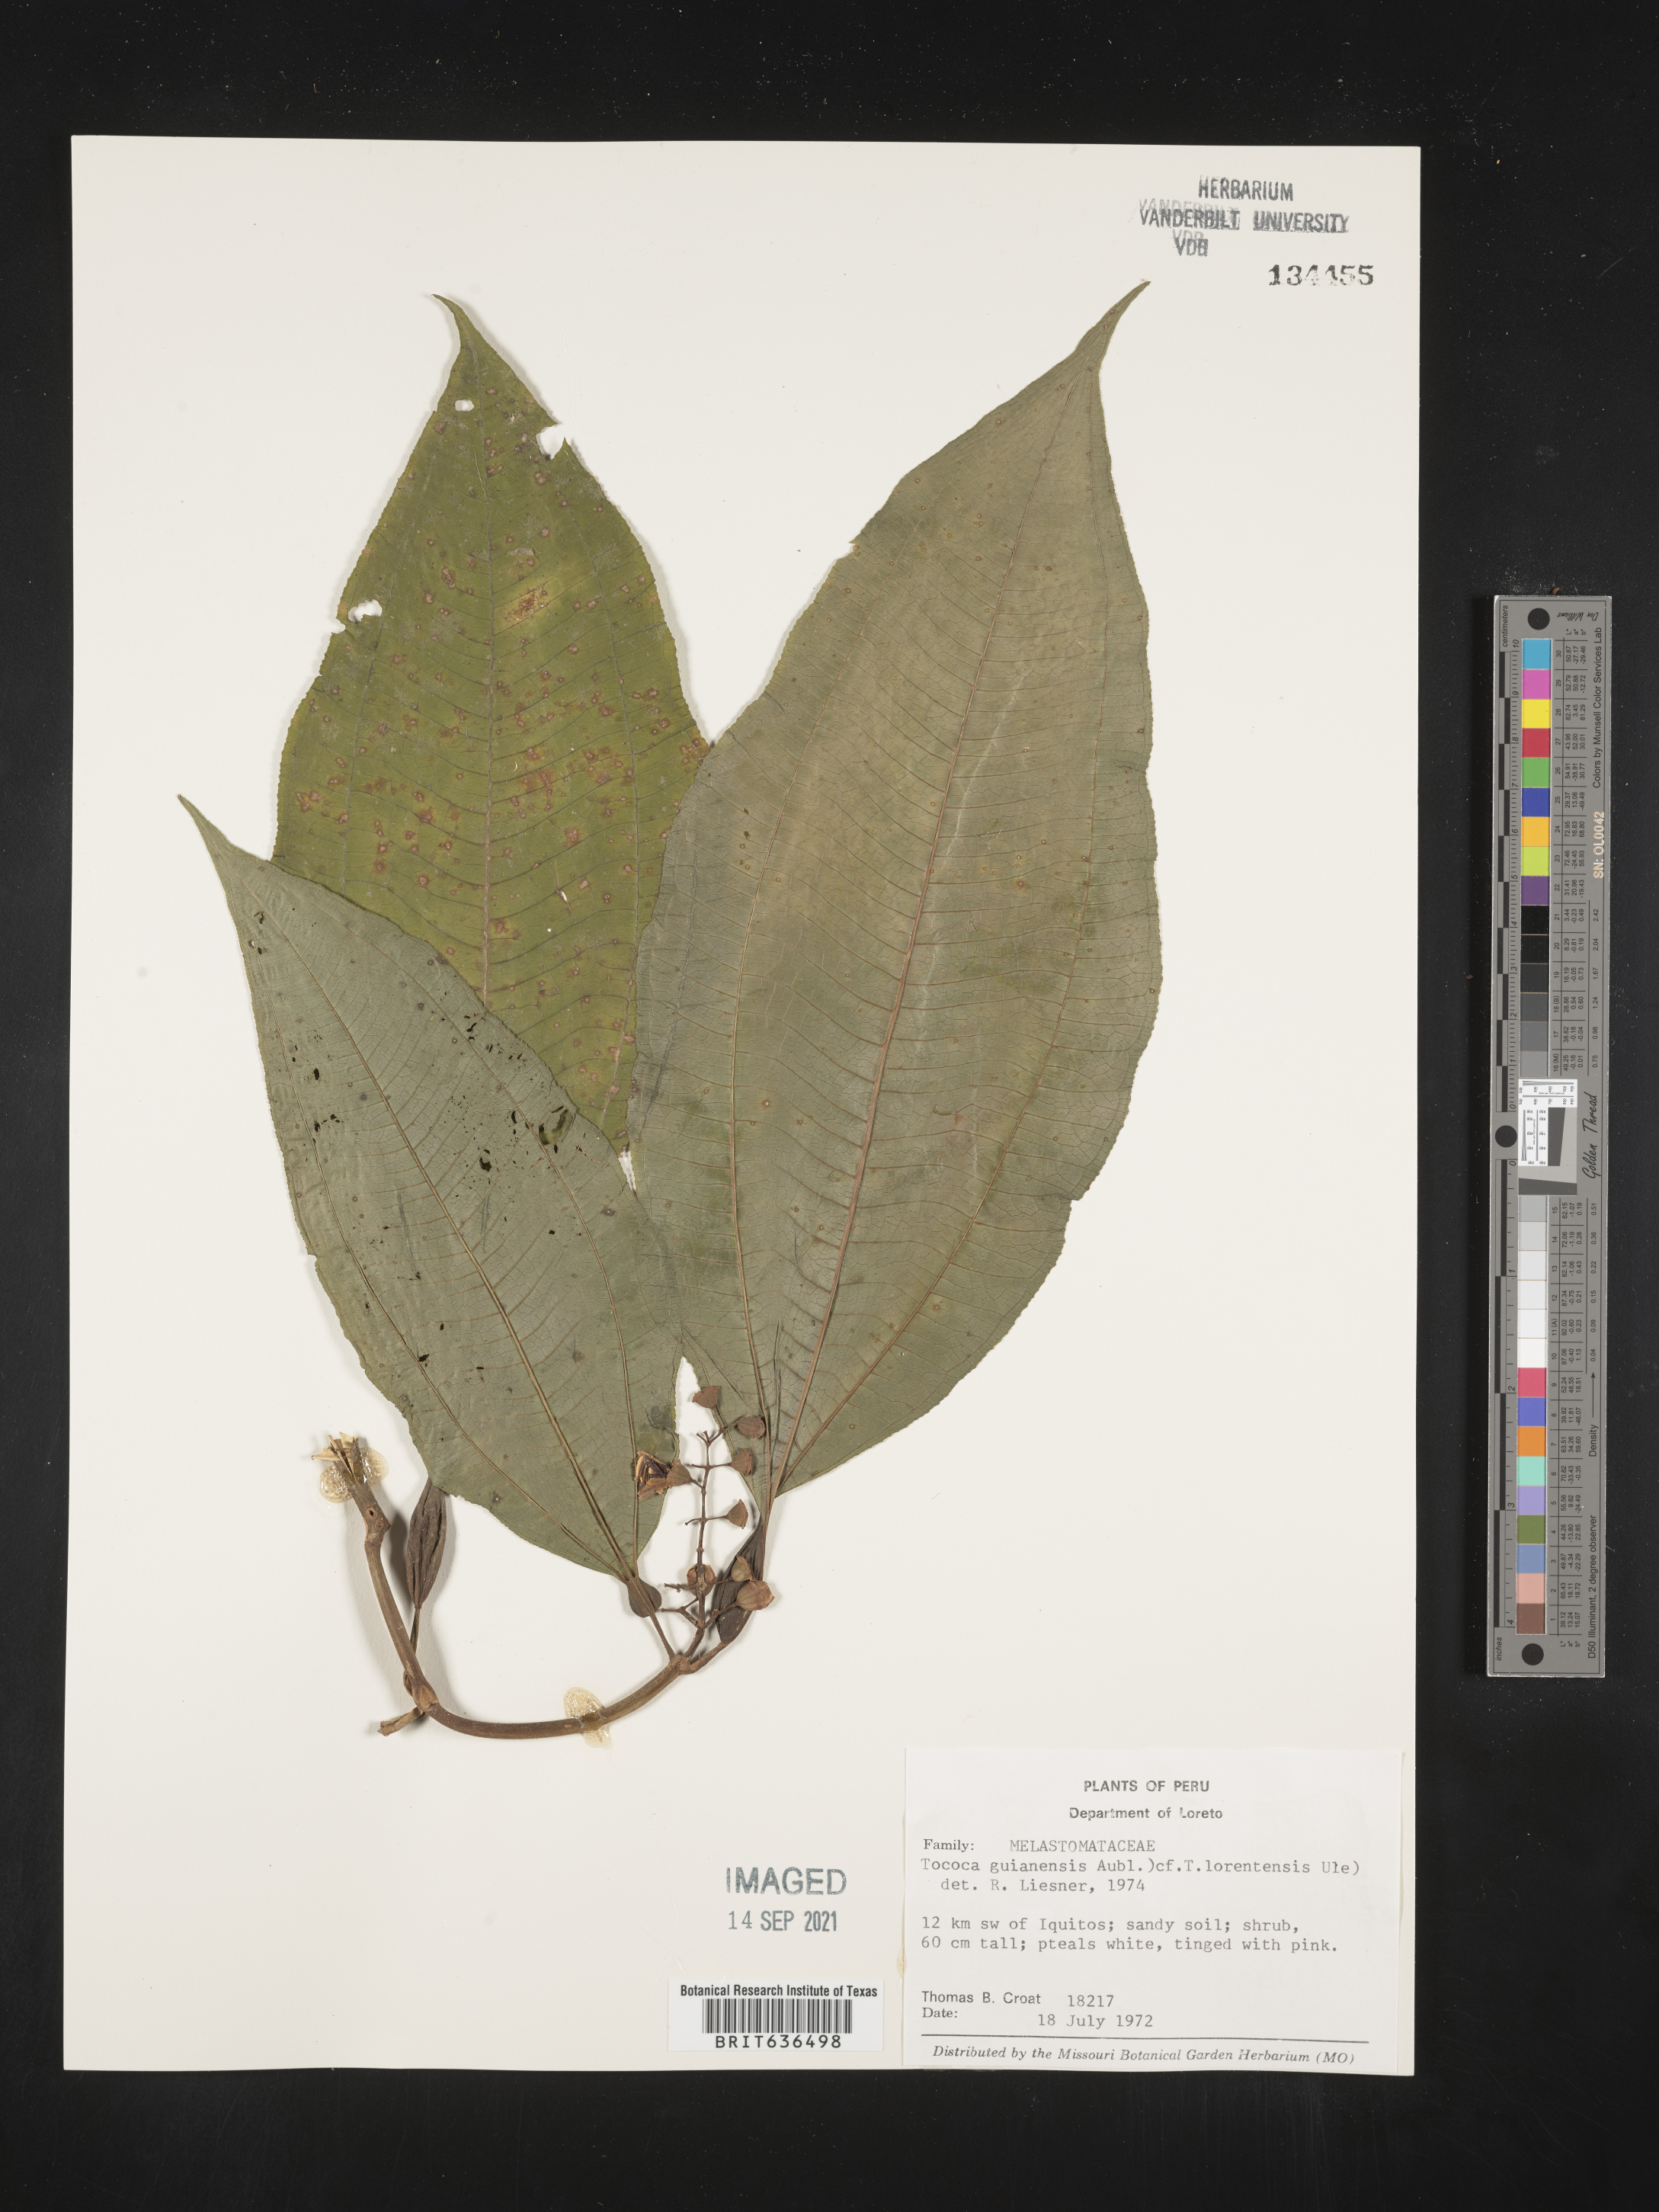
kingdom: Plantae
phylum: Tracheophyta
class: Magnoliopsida
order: Myrtales
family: Melastomataceae
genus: Tibouchina
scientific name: Tibouchina
